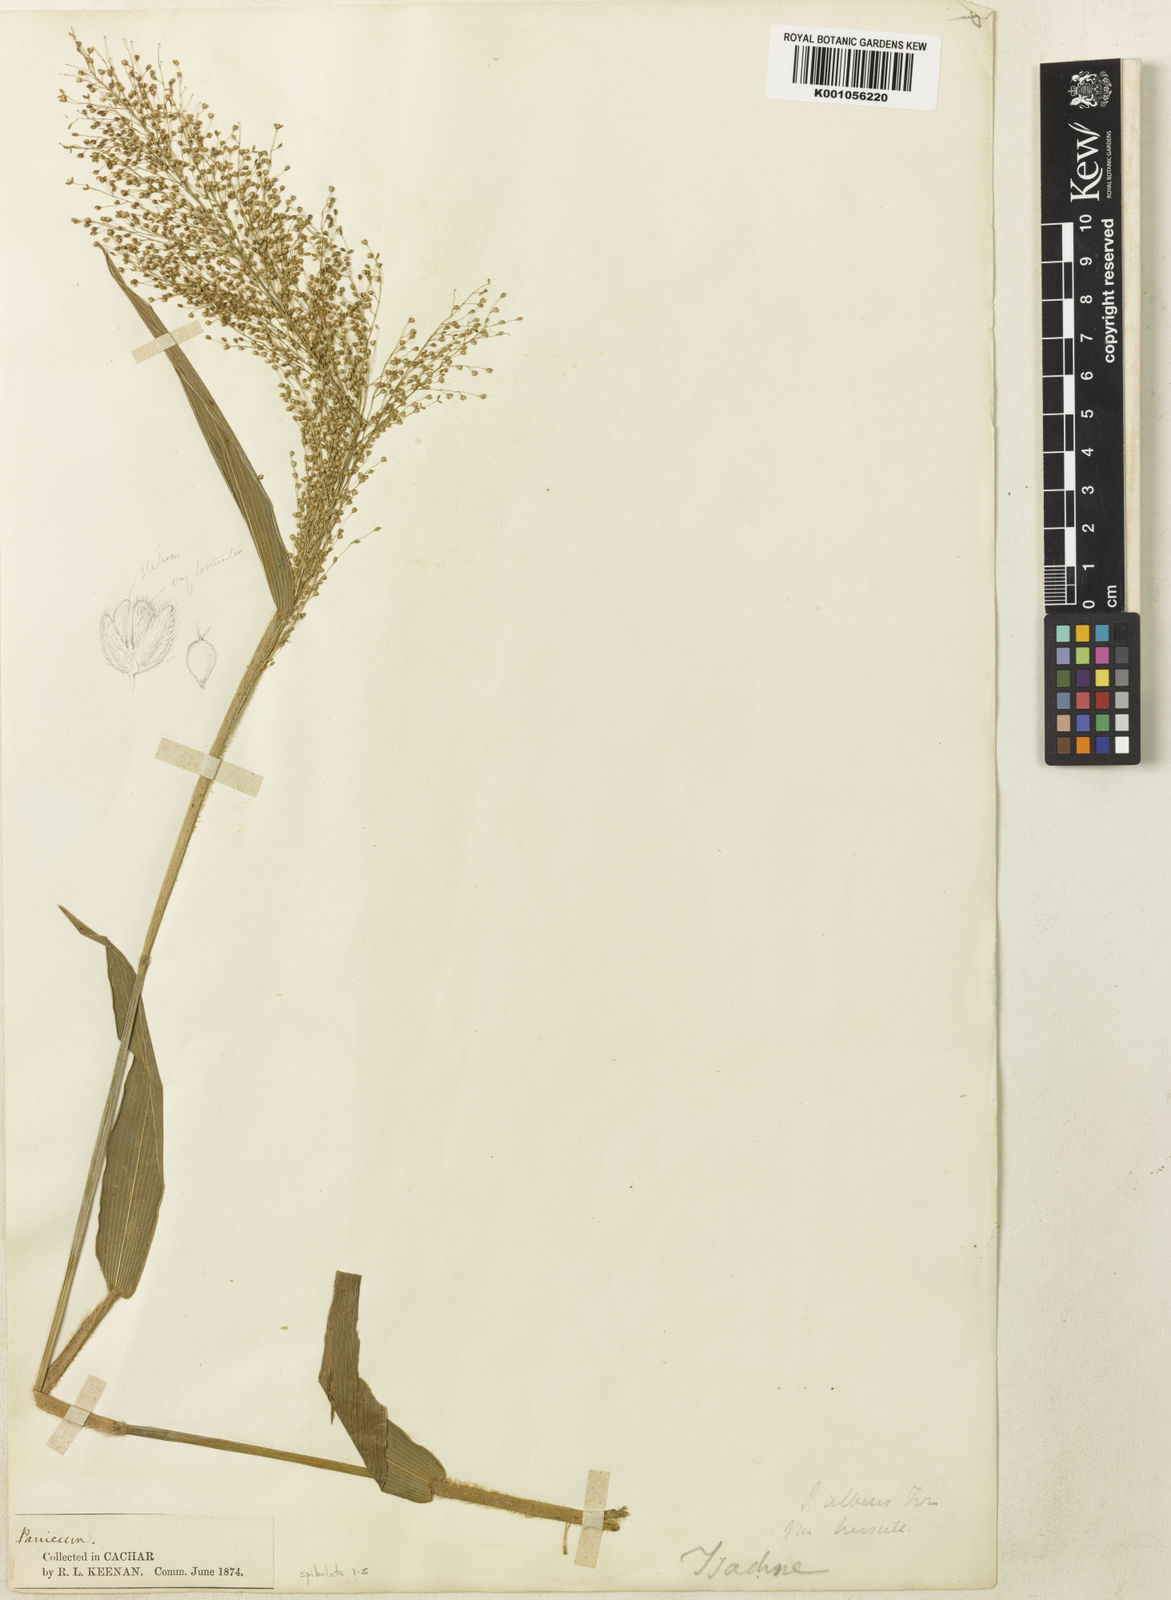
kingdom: Plantae
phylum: Tracheophyta
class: Liliopsida
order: Poales
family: Poaceae
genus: Isachne
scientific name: Isachne sylvestris
